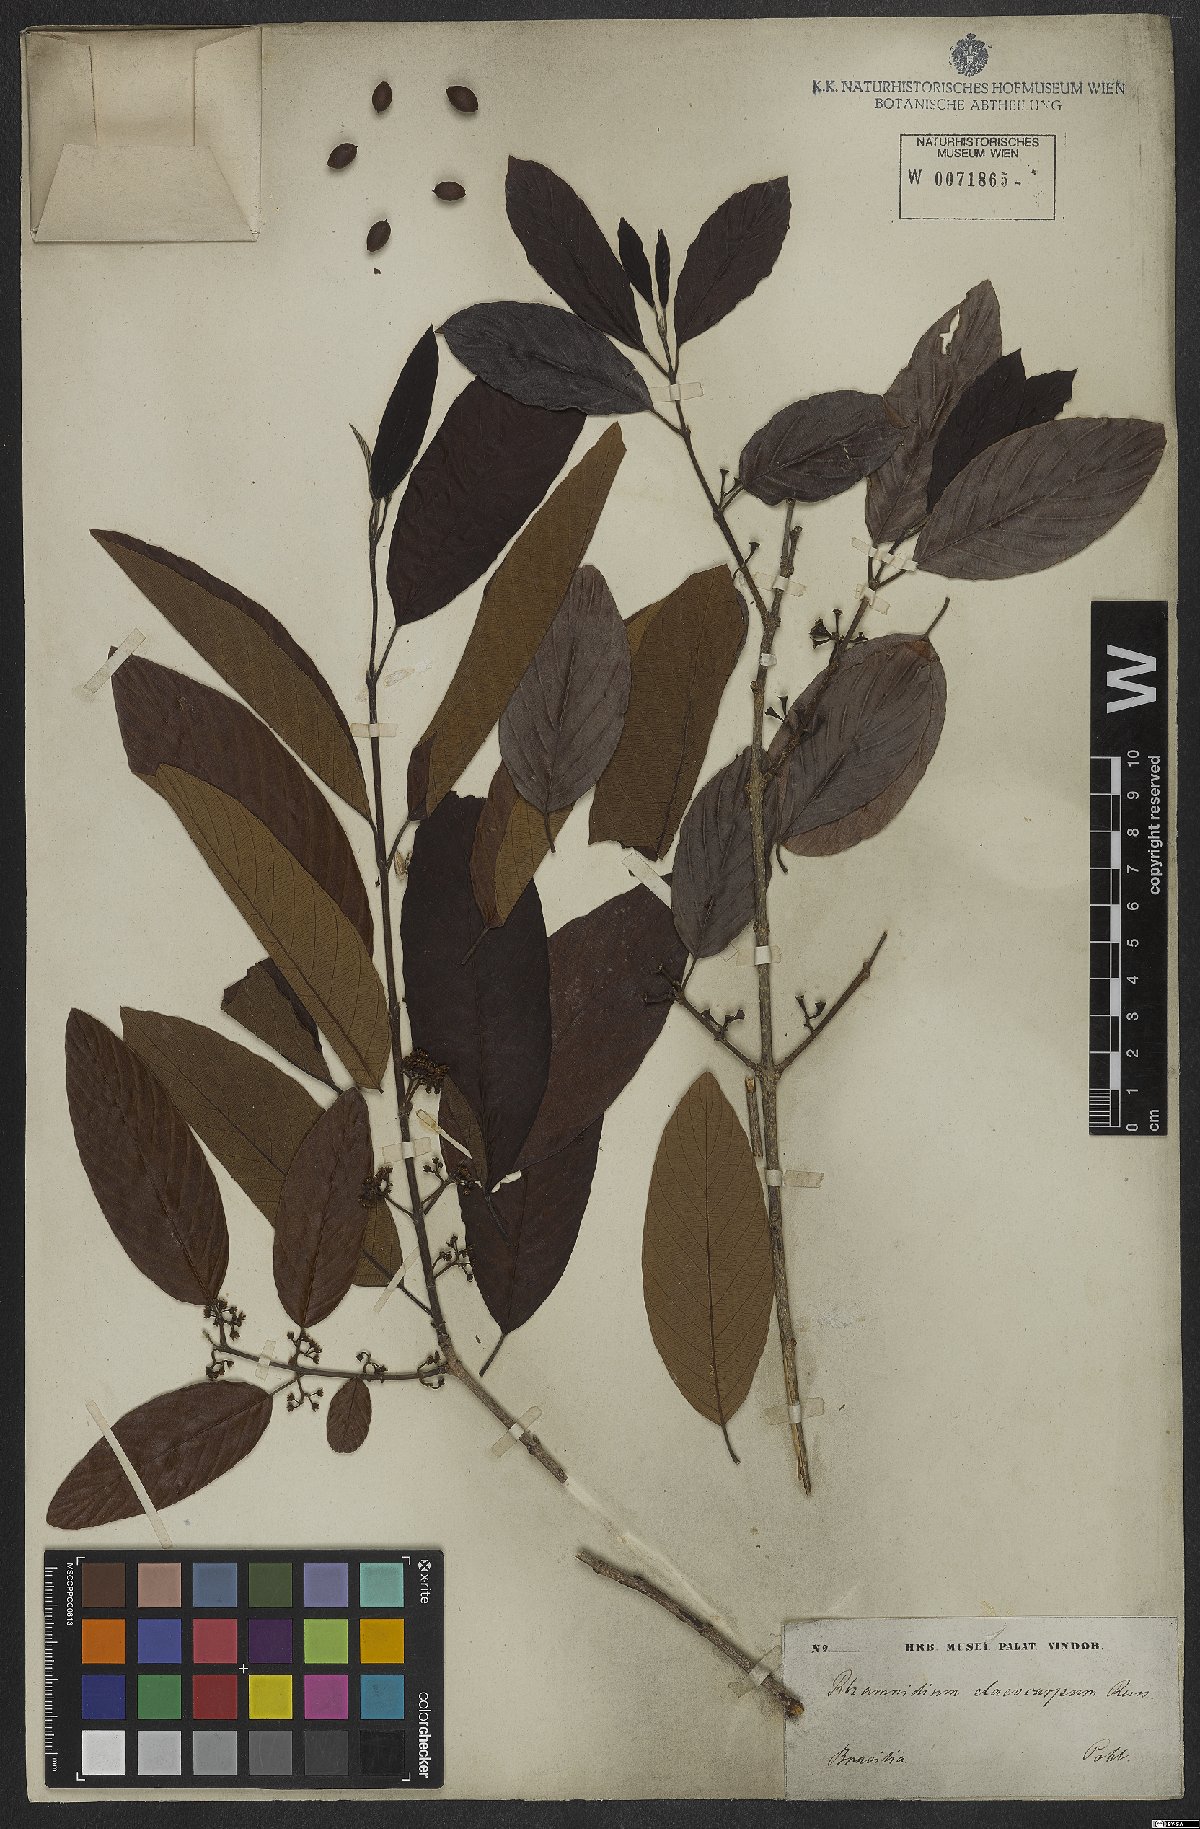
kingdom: Plantae
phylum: Tracheophyta
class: Magnoliopsida
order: Rosales
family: Rhamnaceae
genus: Rhamnidium
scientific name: Rhamnidium elaeocarpum
